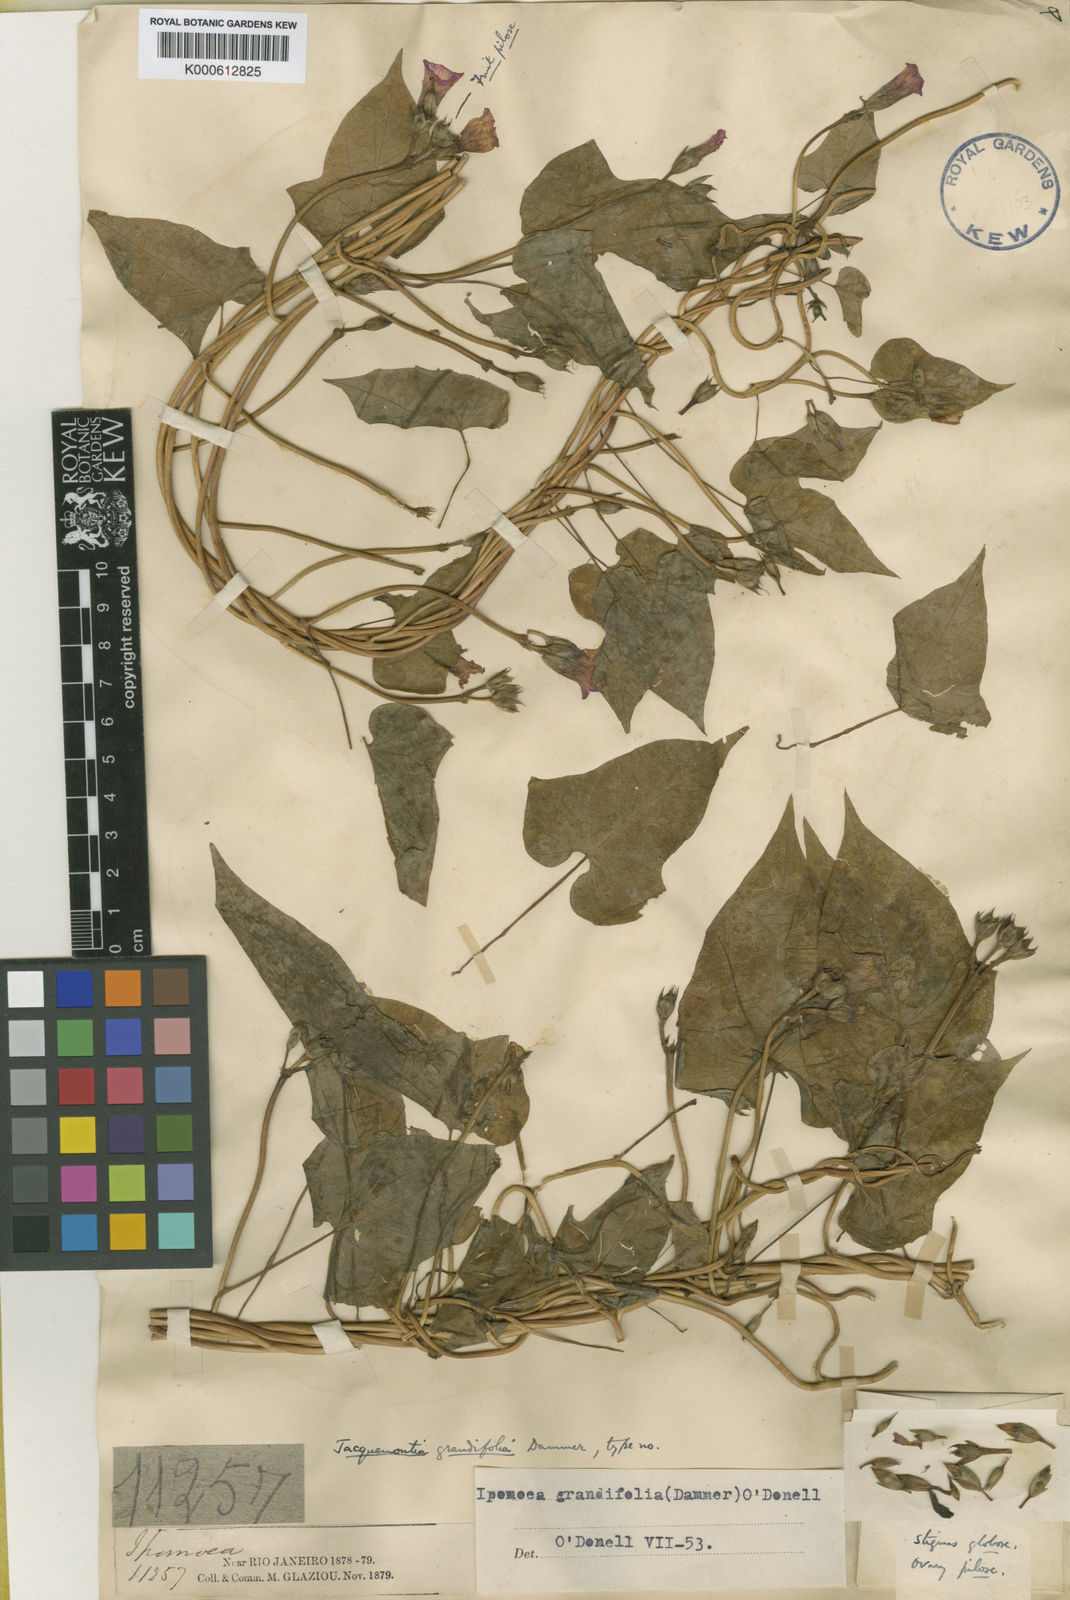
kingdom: Plantae
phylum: Tracheophyta
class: Magnoliopsida
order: Solanales
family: Convolvulaceae
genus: Ipomoea
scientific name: Ipomoea grandifolia
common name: Aiea morning glory
